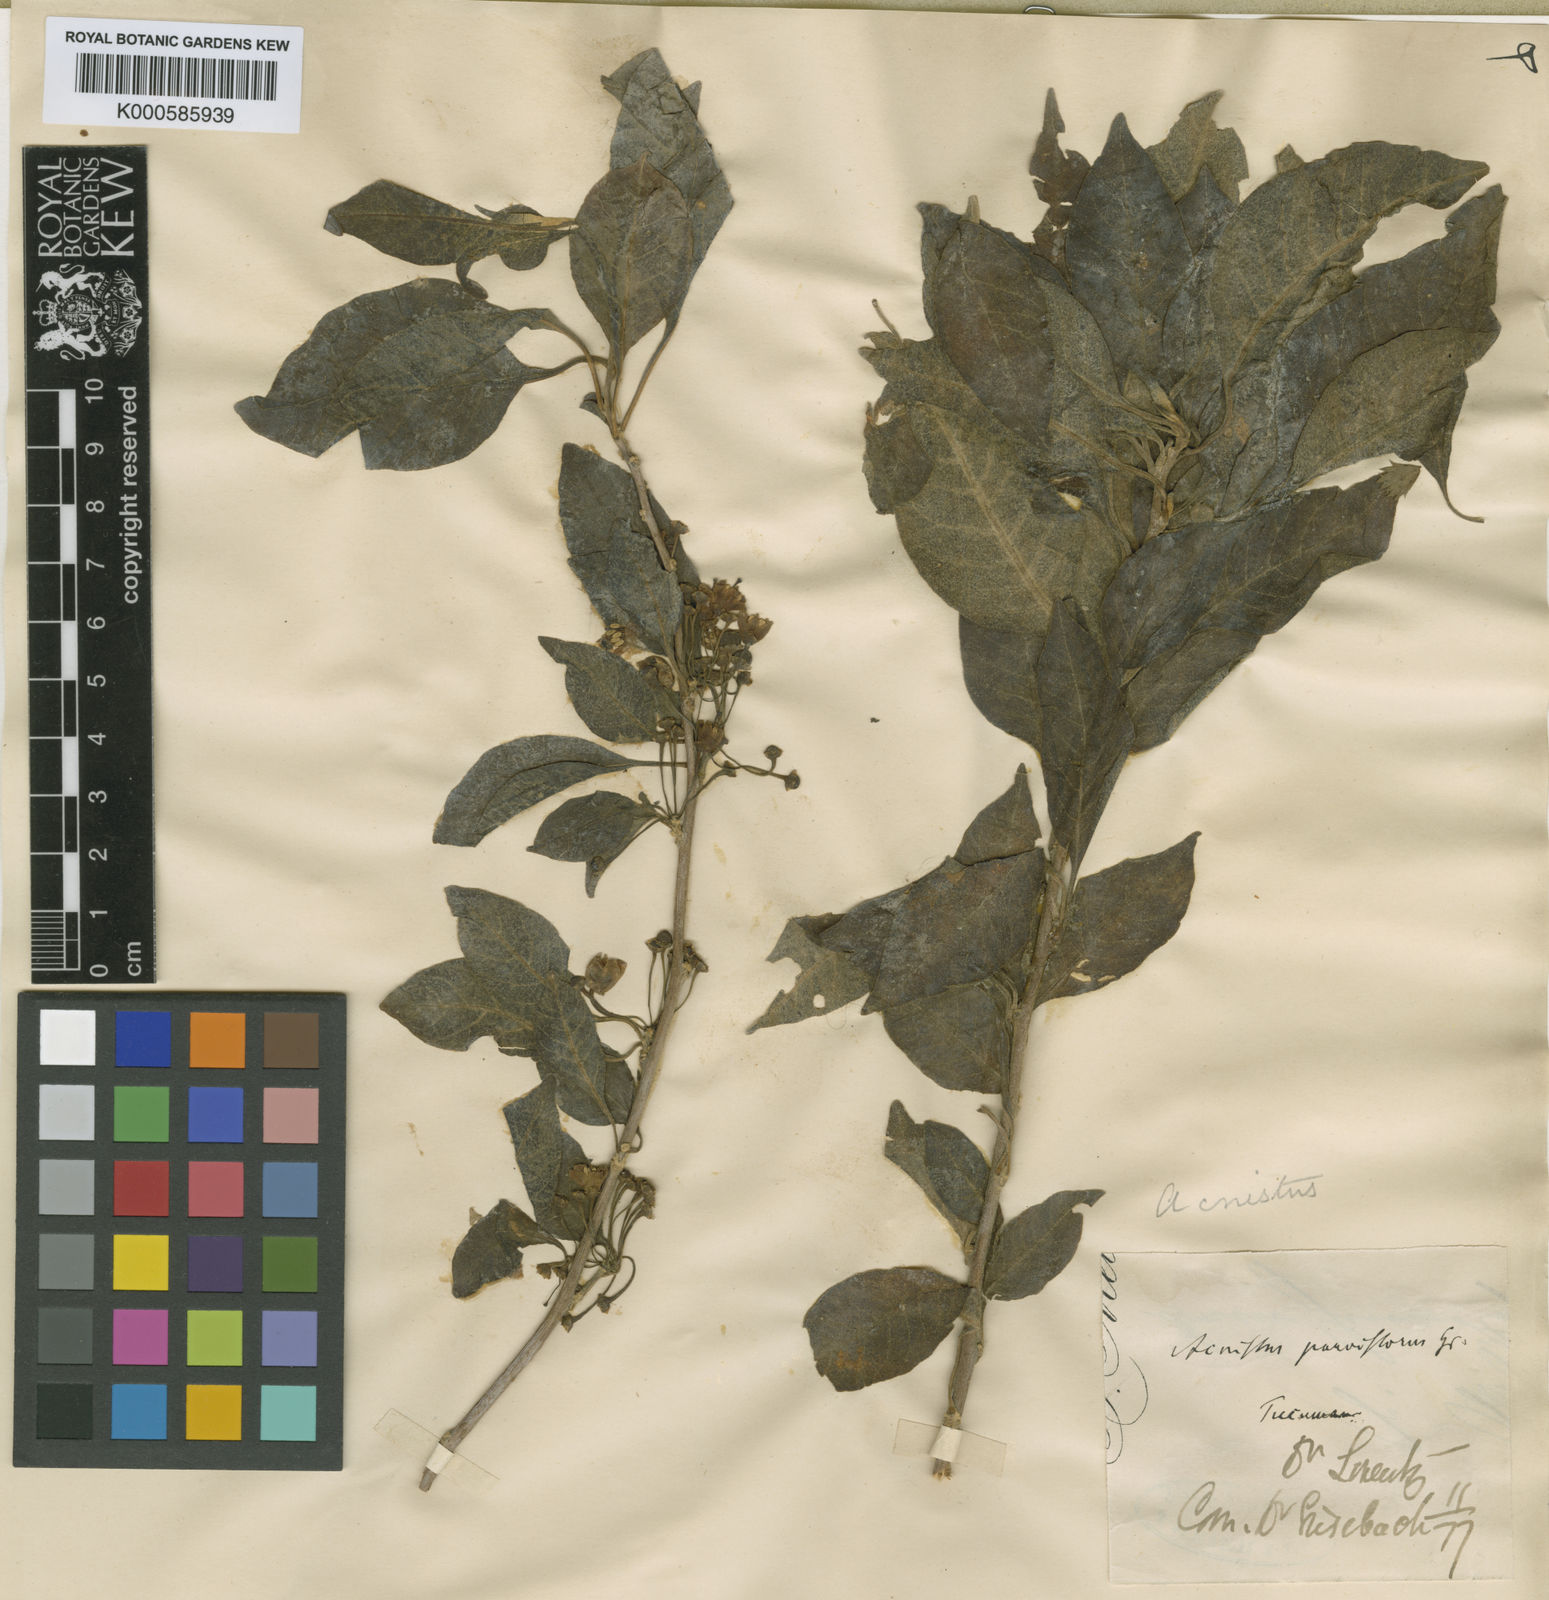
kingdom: Plantae
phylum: Tracheophyta
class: Magnoliopsida
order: Solanales
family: Solanaceae
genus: Vassobia
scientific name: Vassobia breviflora
